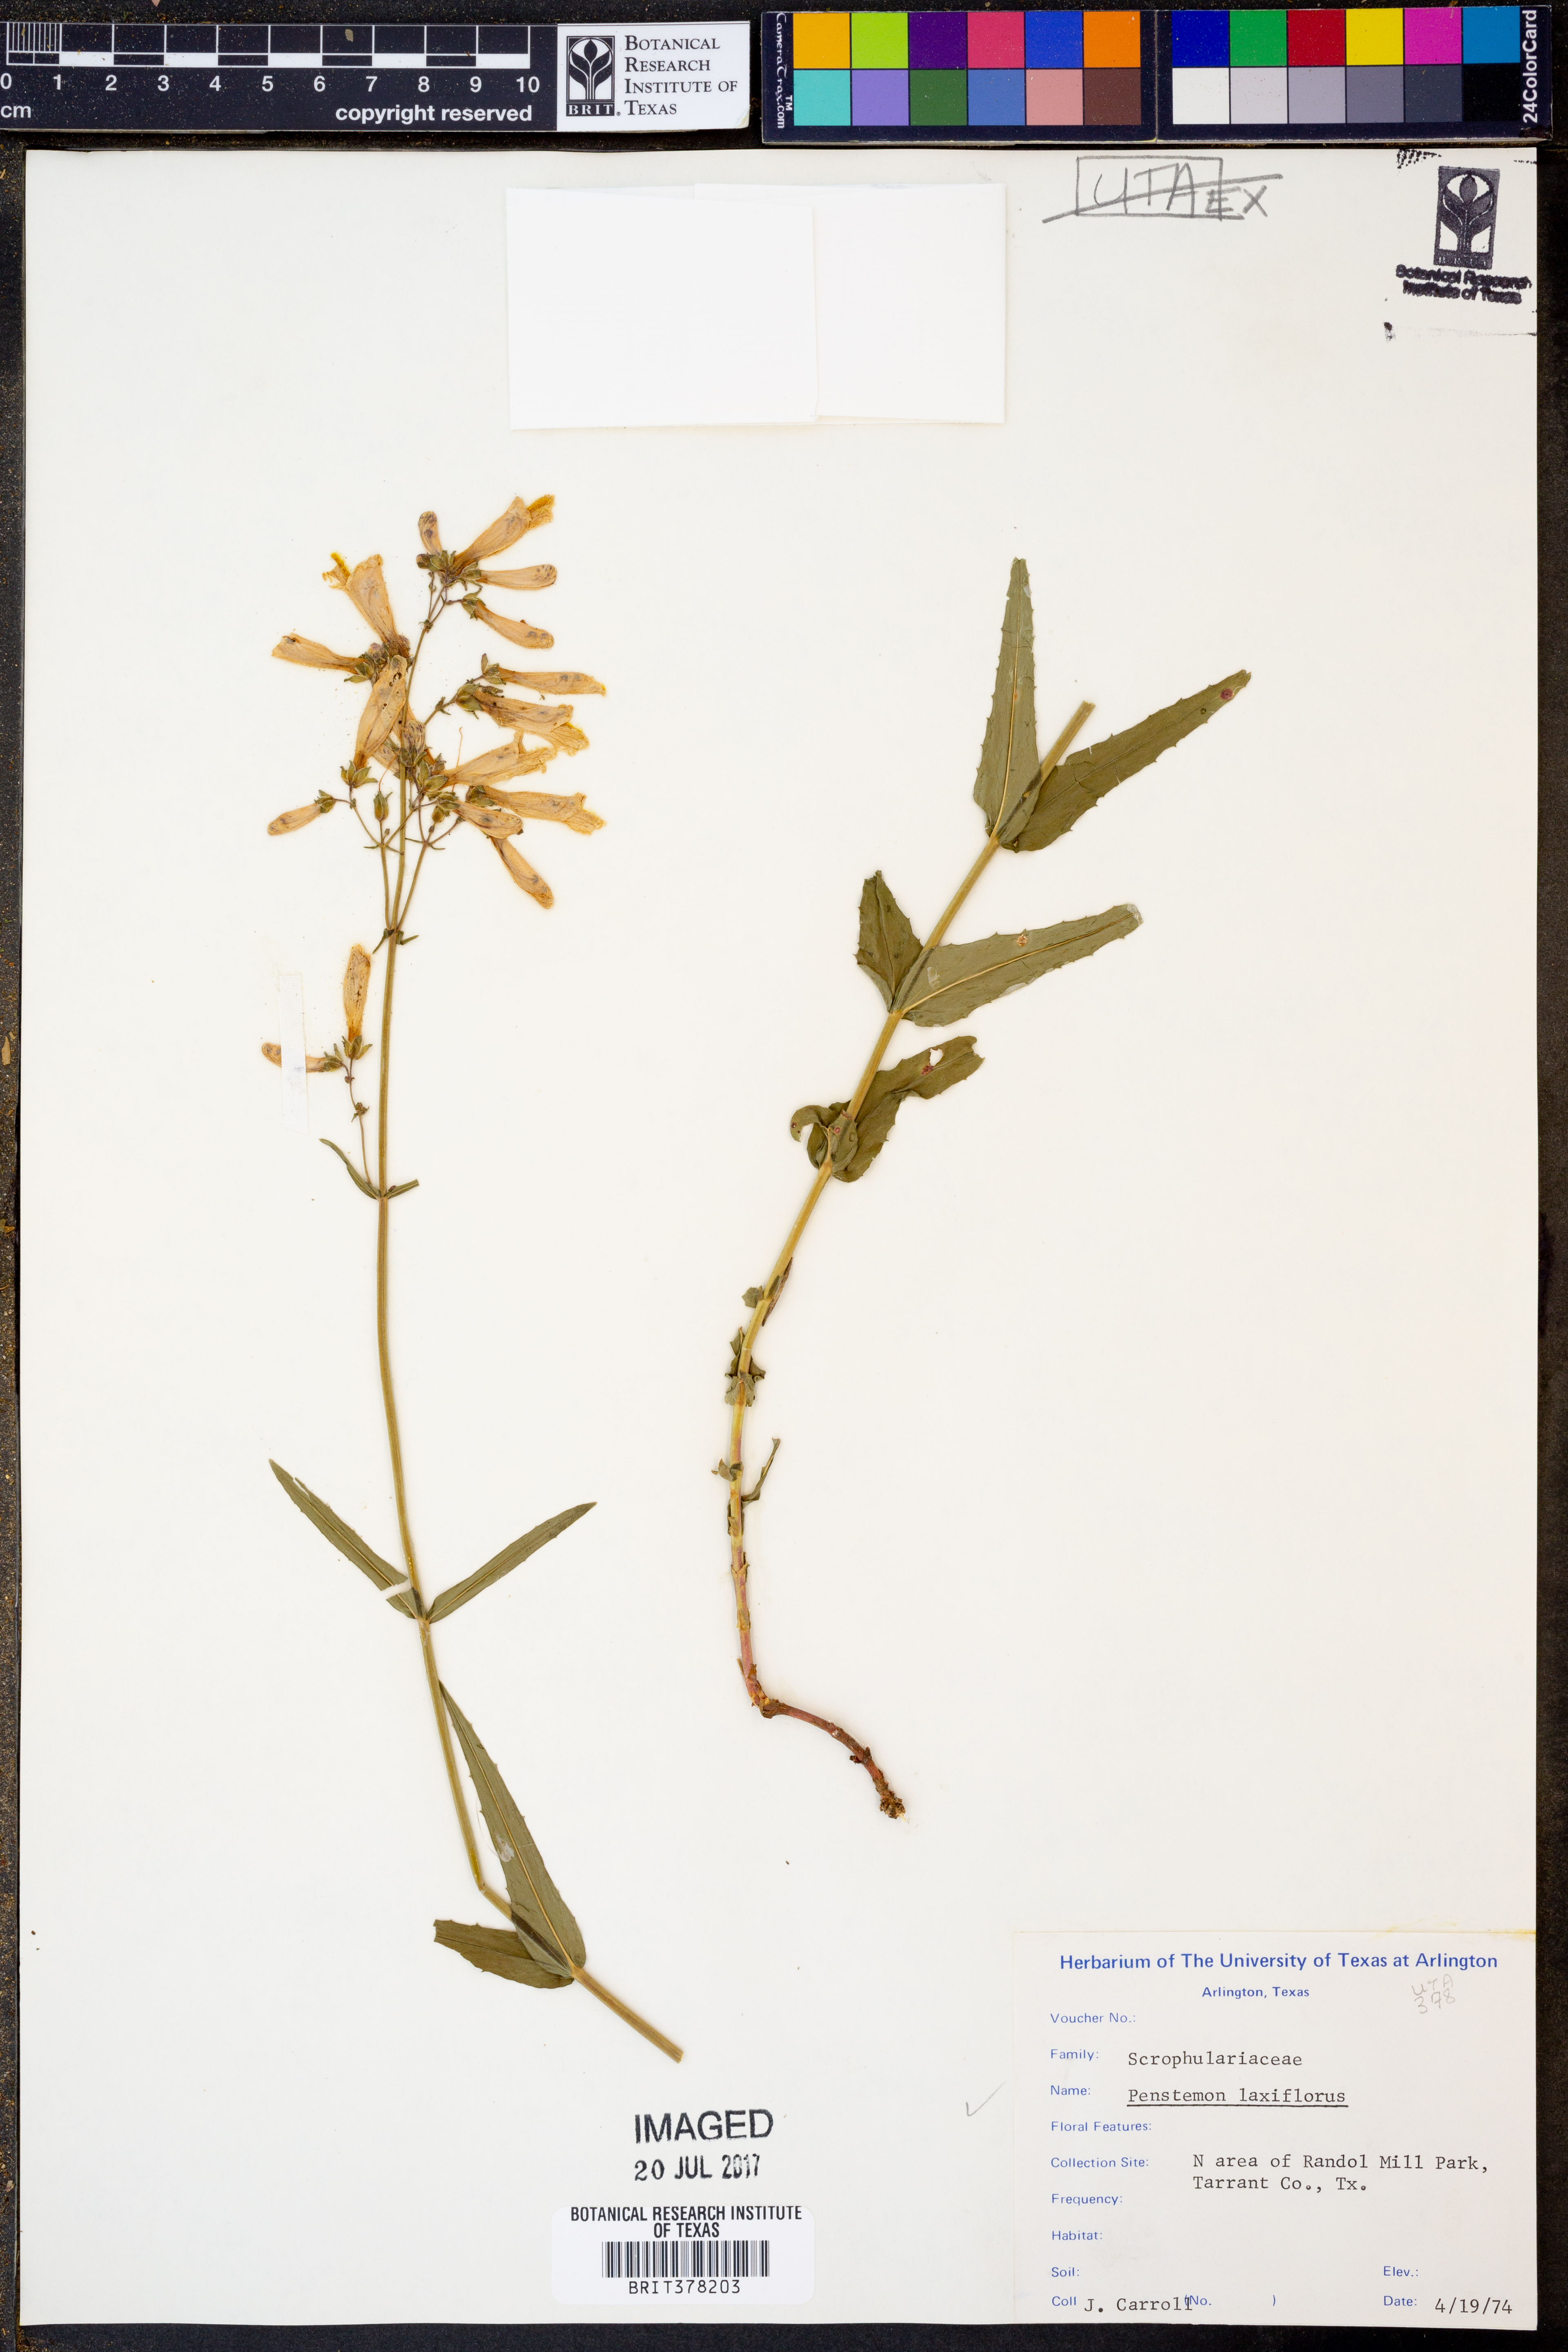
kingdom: Plantae
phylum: Tracheophyta
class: Magnoliopsida
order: Lamiales
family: Plantaginaceae
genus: Penstemon
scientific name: Penstemon laxiflorus
